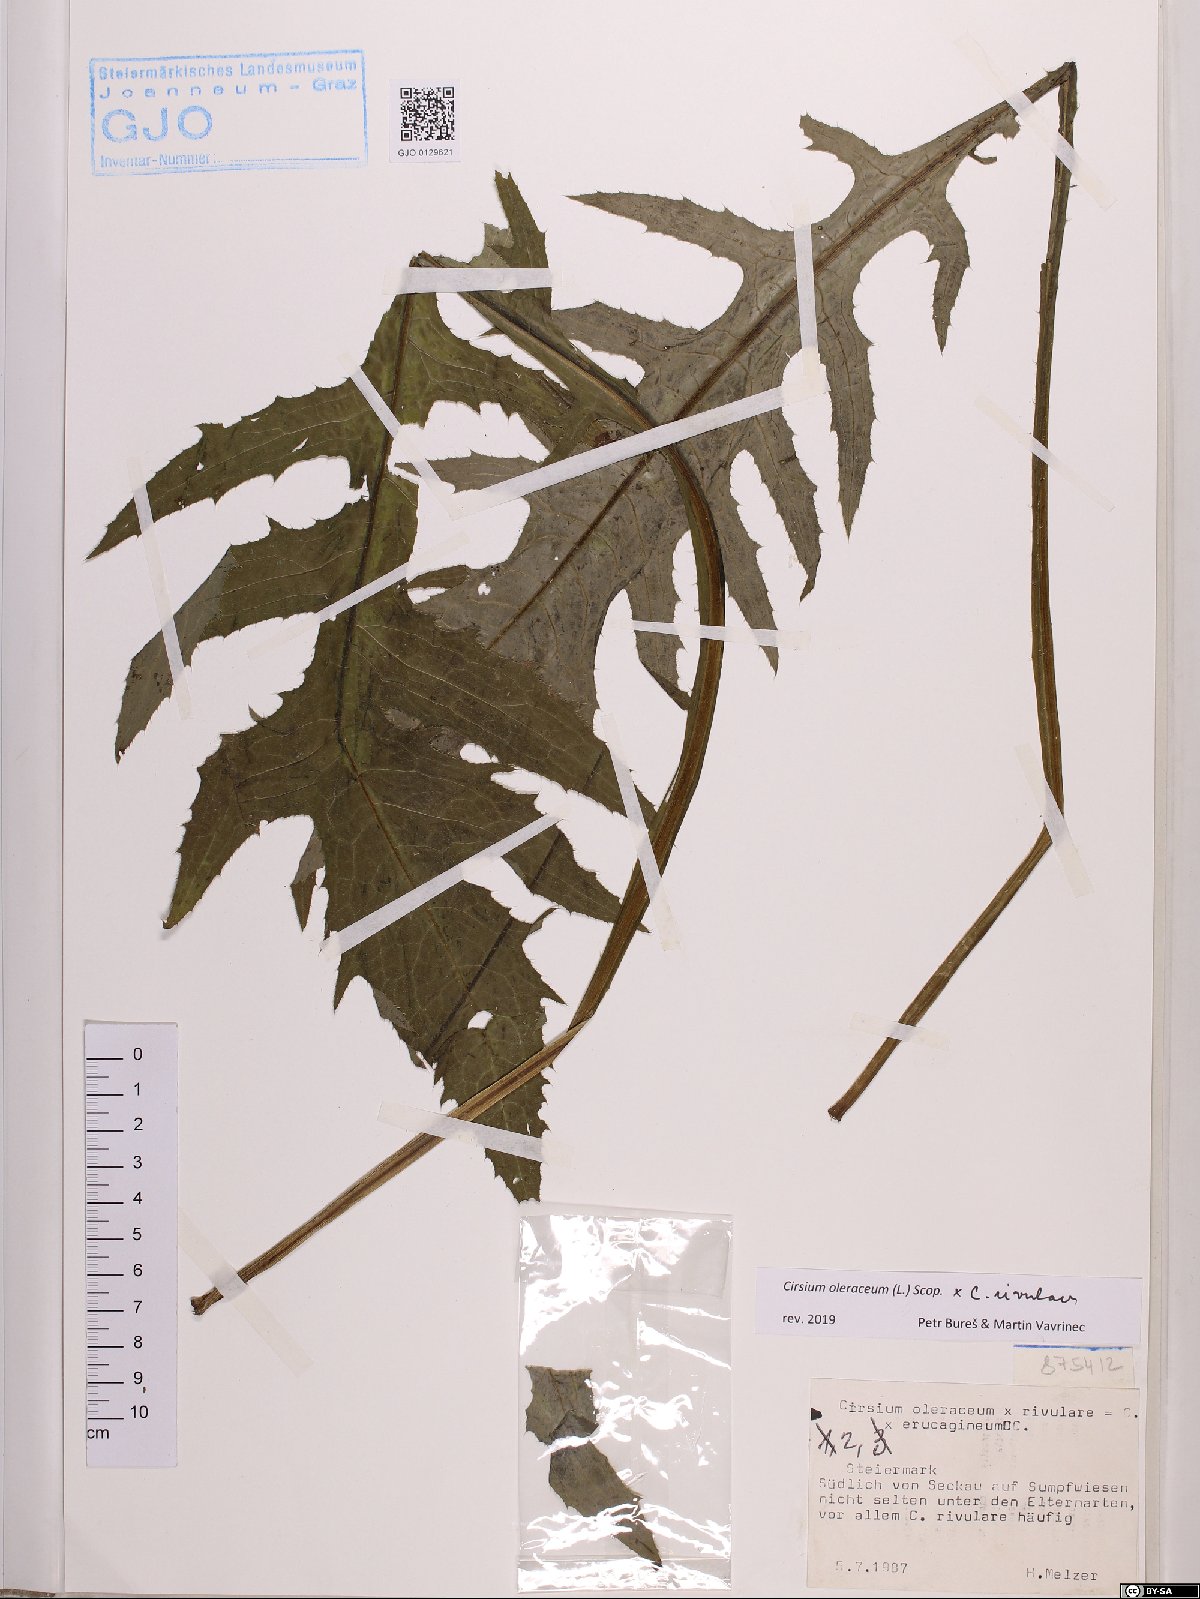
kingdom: Plantae
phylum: Tracheophyta
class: Magnoliopsida
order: Asterales
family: Asteraceae
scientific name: Asteraceae
